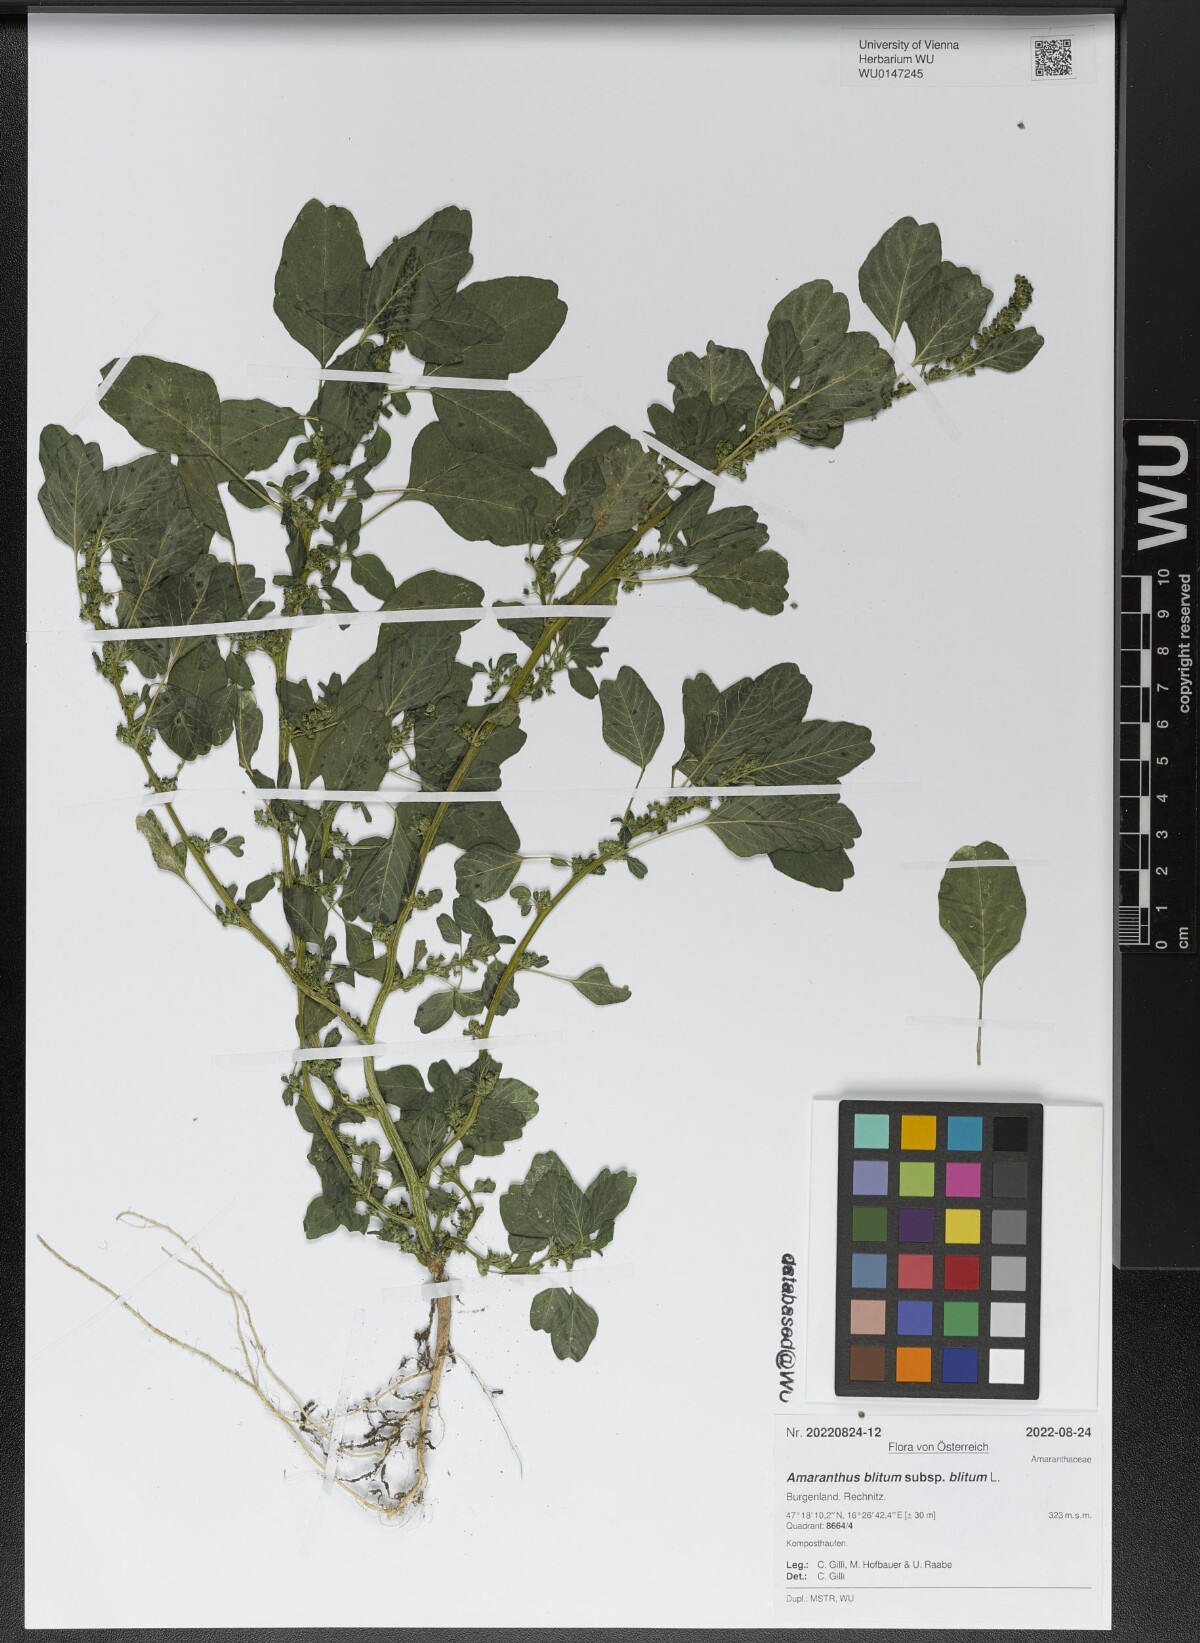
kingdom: Plantae
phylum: Tracheophyta
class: Magnoliopsida
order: Caryophyllales
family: Amaranthaceae
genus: Amaranthus
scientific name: Amaranthus blitum
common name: Purple amaranth
